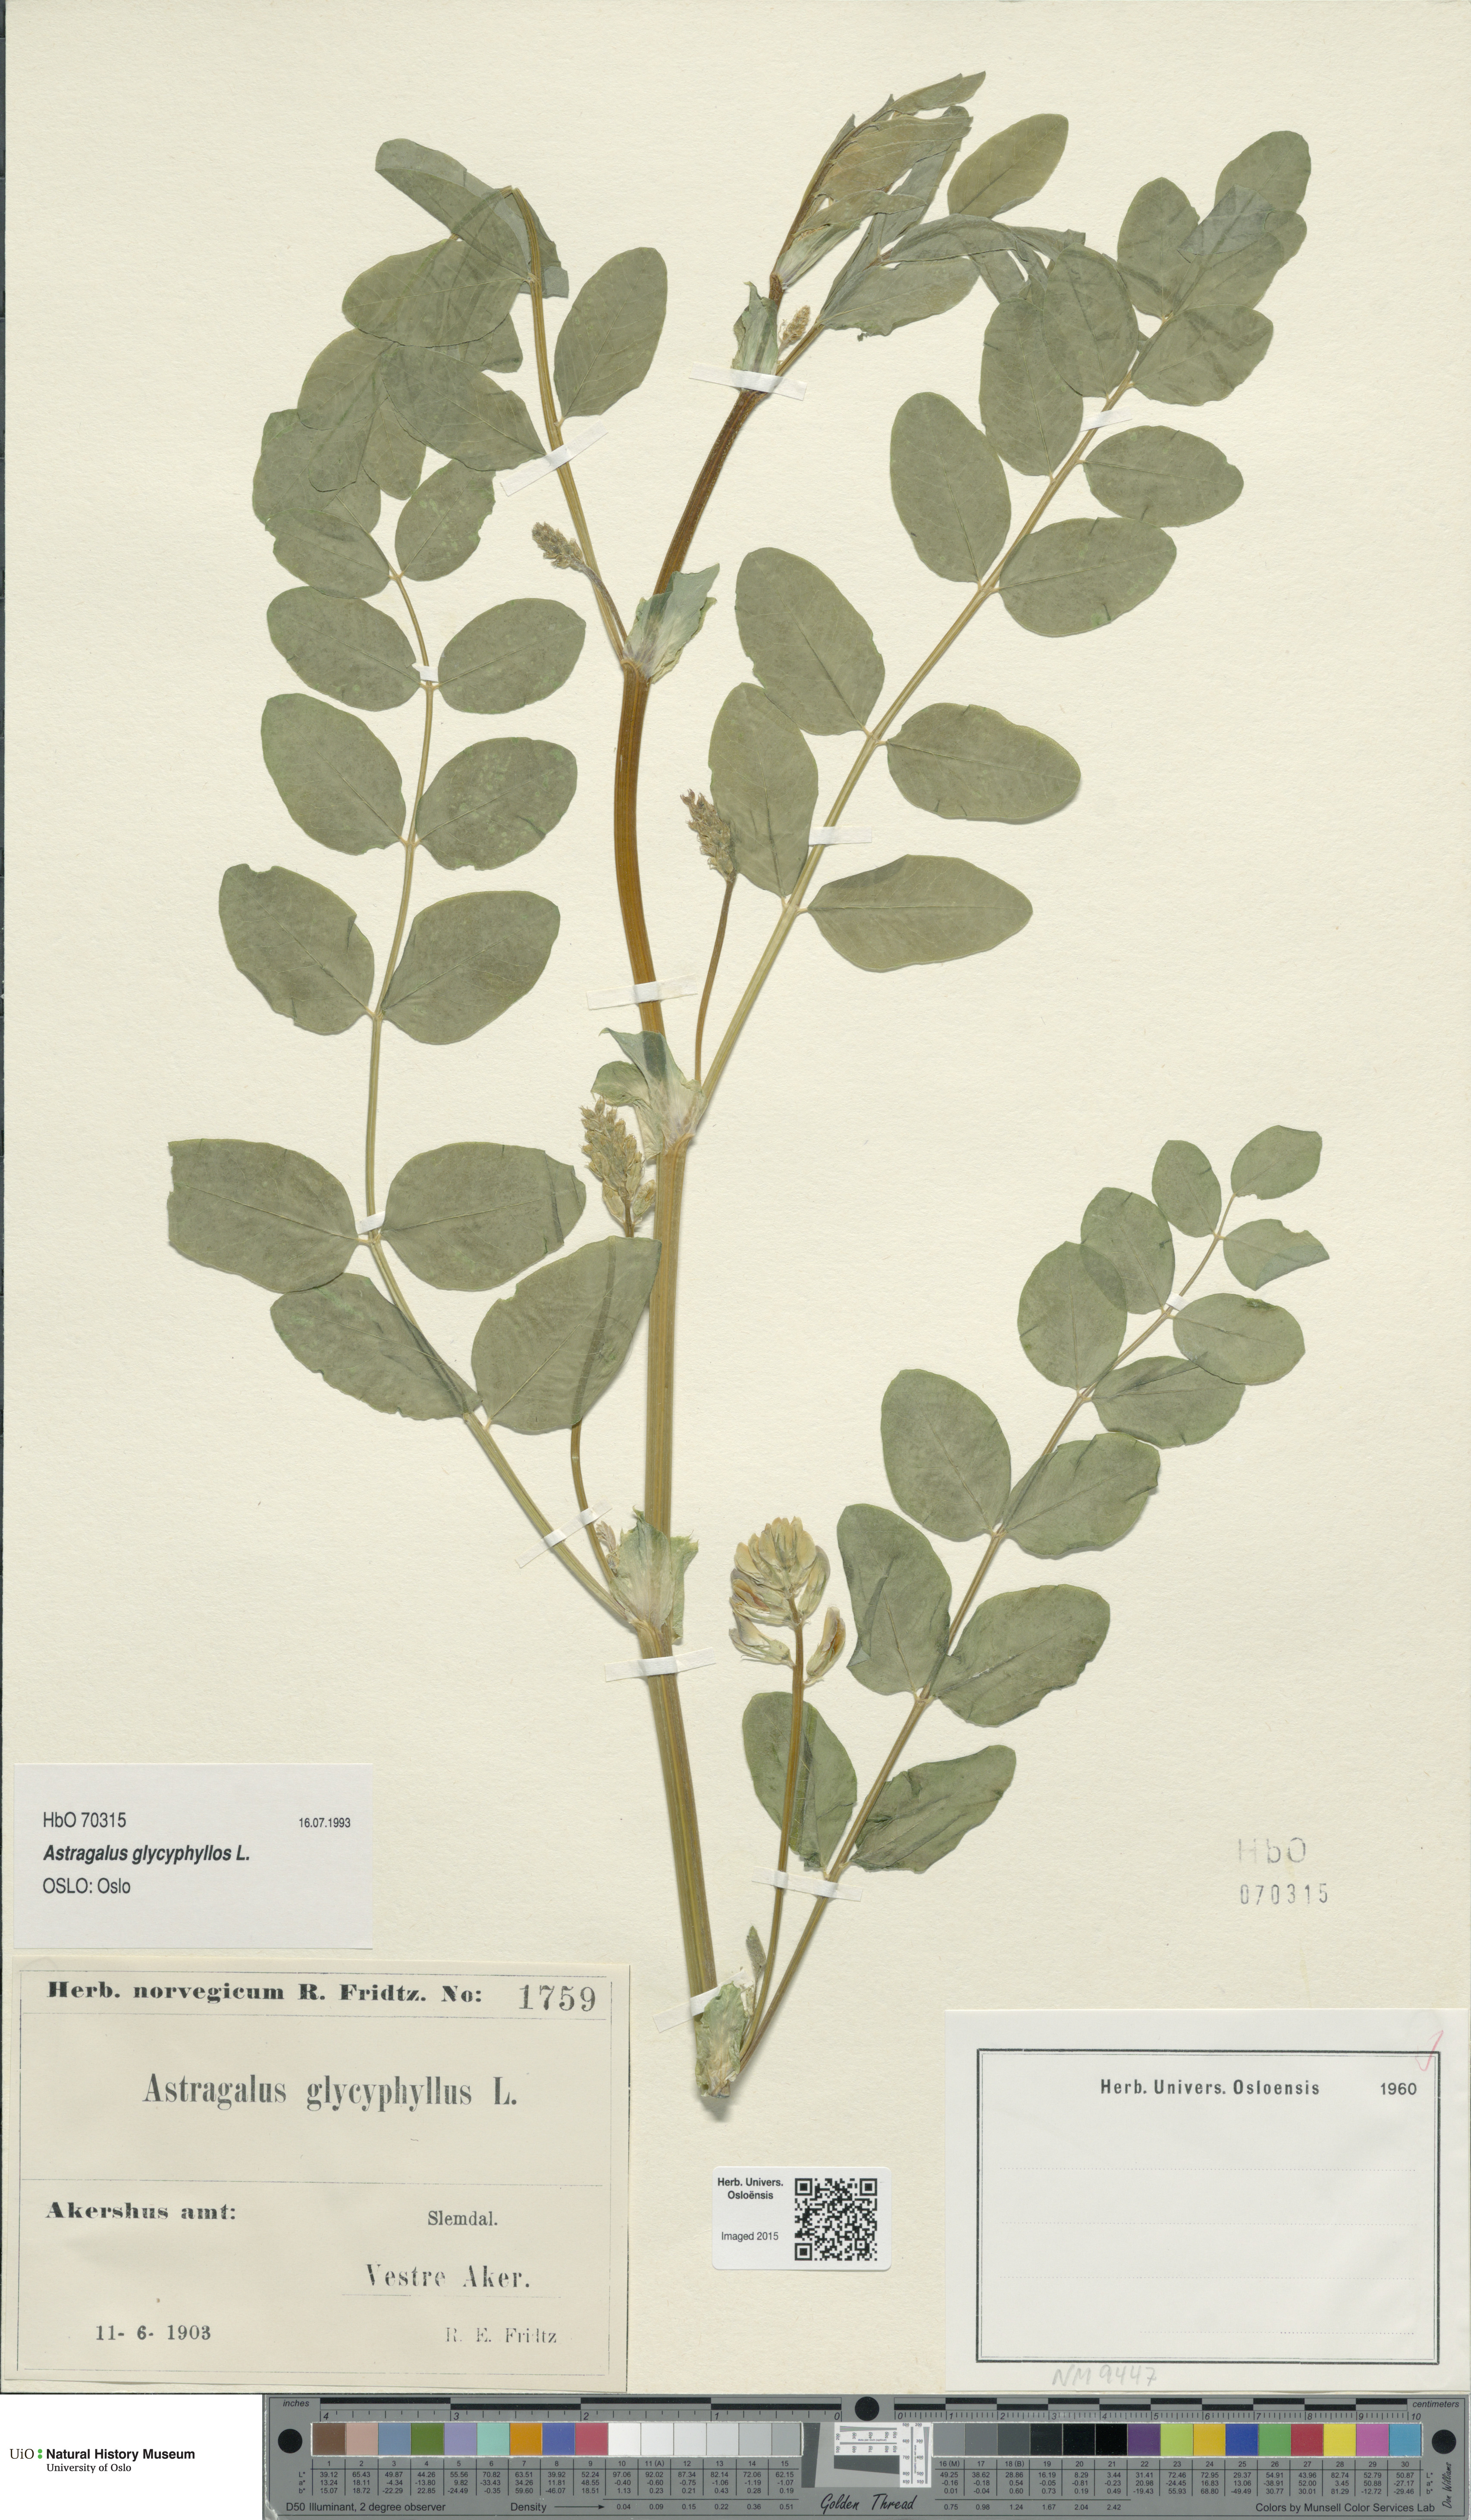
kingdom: Plantae
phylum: Tracheophyta
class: Magnoliopsida
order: Fabales
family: Fabaceae
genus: Astragalus
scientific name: Astragalus glycyphyllos
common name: Wild liquorice
